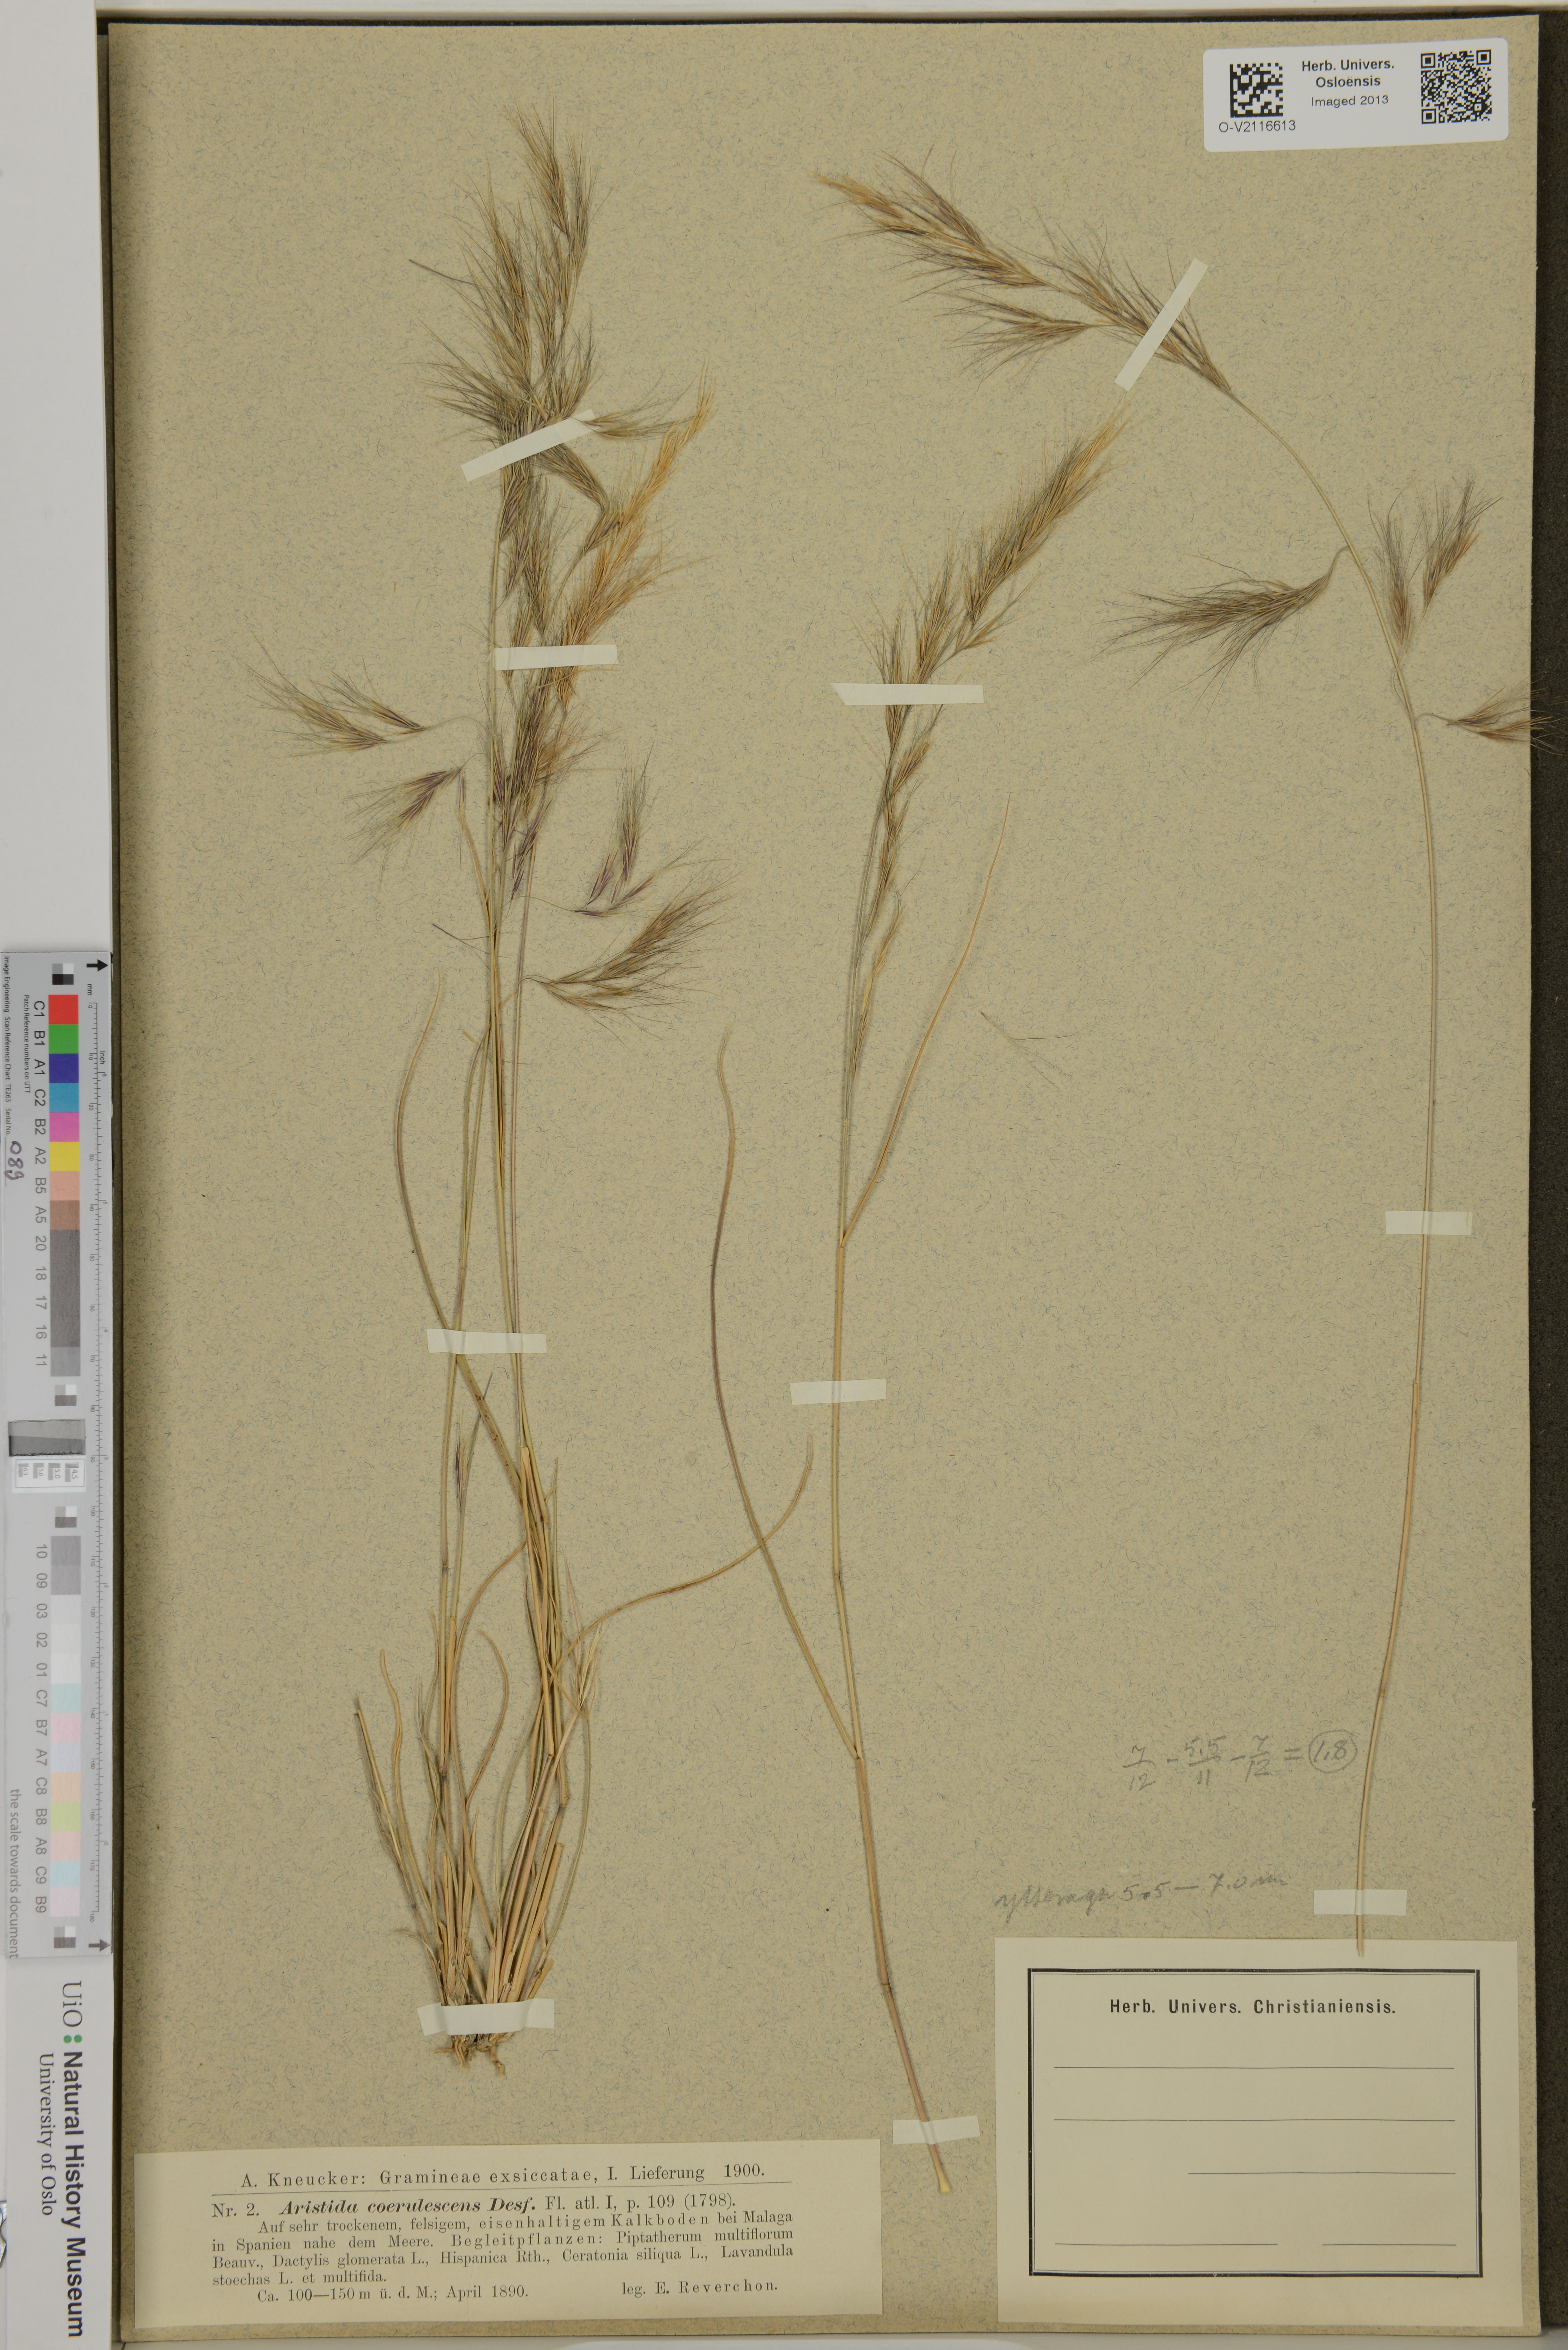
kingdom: Plantae
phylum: Tracheophyta
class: Liliopsida
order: Poales
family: Poaceae
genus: Aristida
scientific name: Aristida
